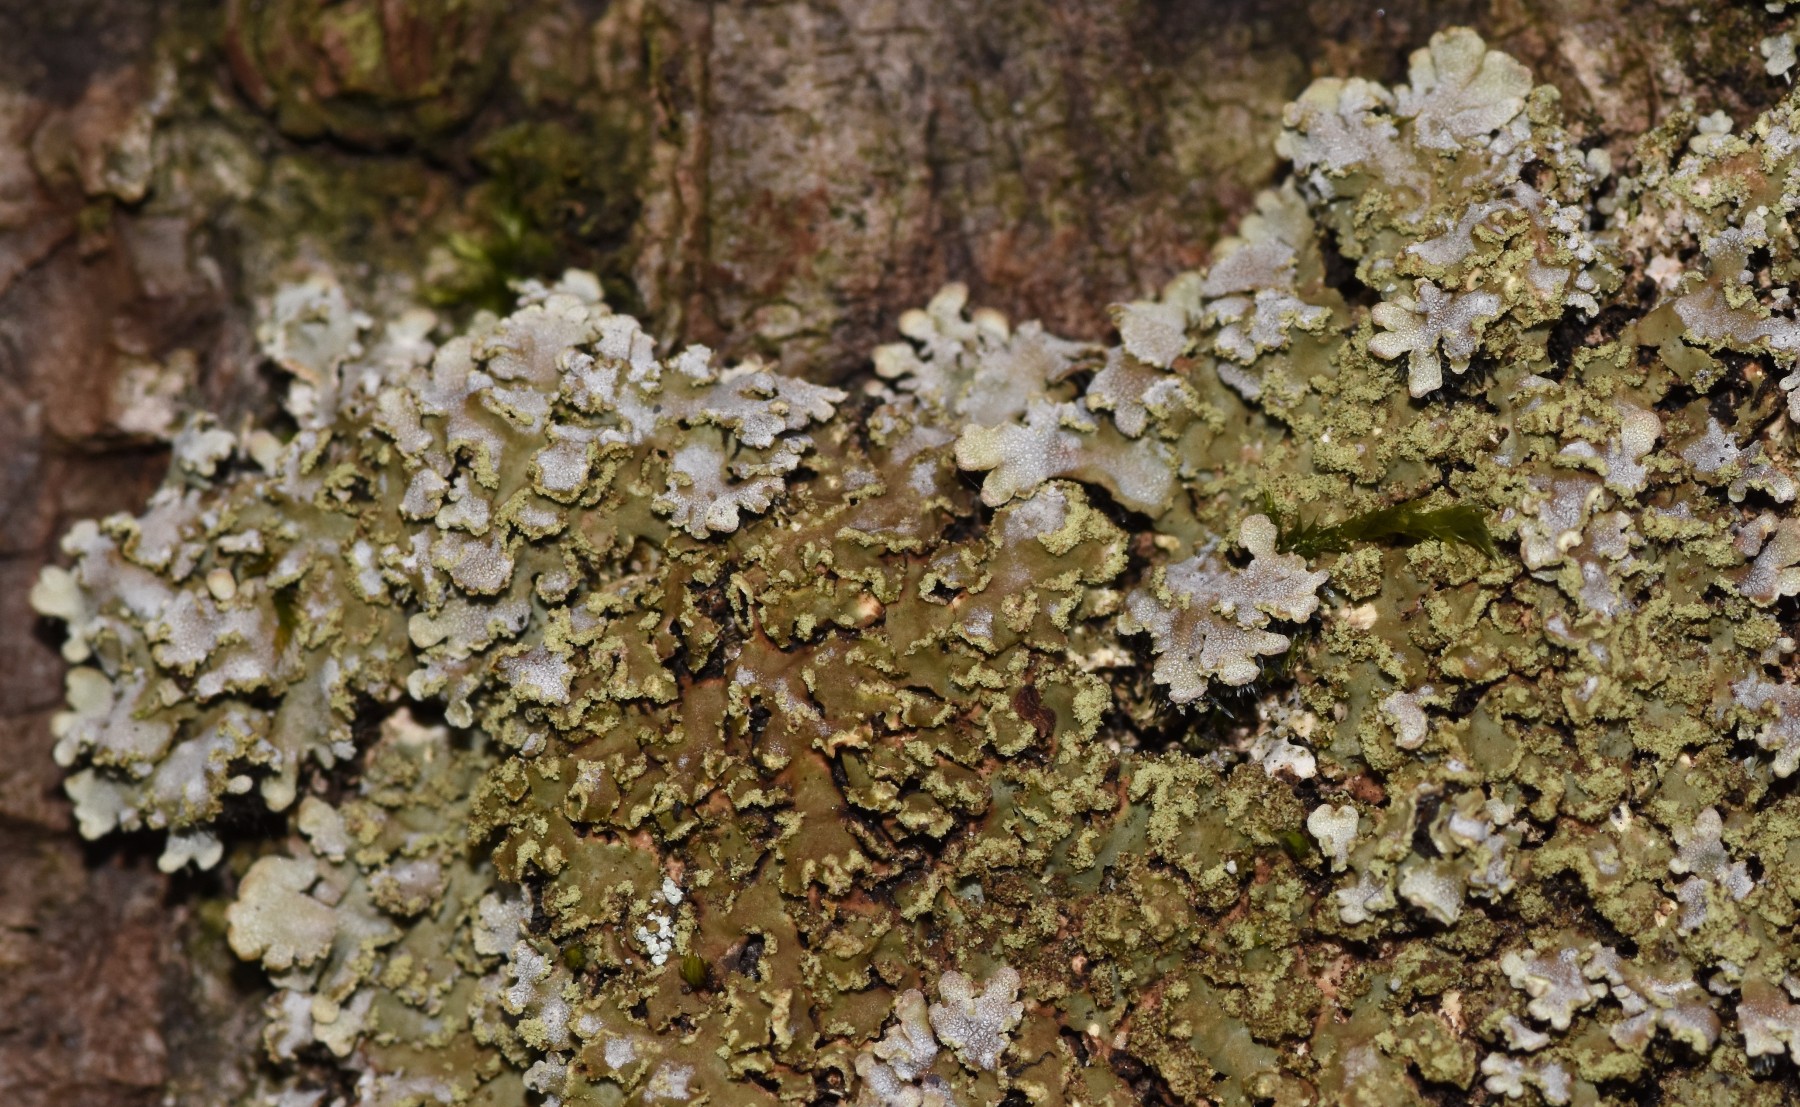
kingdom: Fungi
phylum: Ascomycota
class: Lecanoromycetes
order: Caliciales
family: Physciaceae
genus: Poeltonia
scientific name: Poeltonia grisea
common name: hvidgrå dugrosetlav
